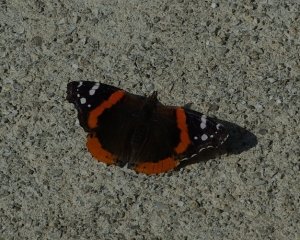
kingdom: Animalia
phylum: Arthropoda
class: Insecta
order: Lepidoptera
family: Nymphalidae
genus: Vanessa
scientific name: Vanessa atalanta
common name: Red Admiral
